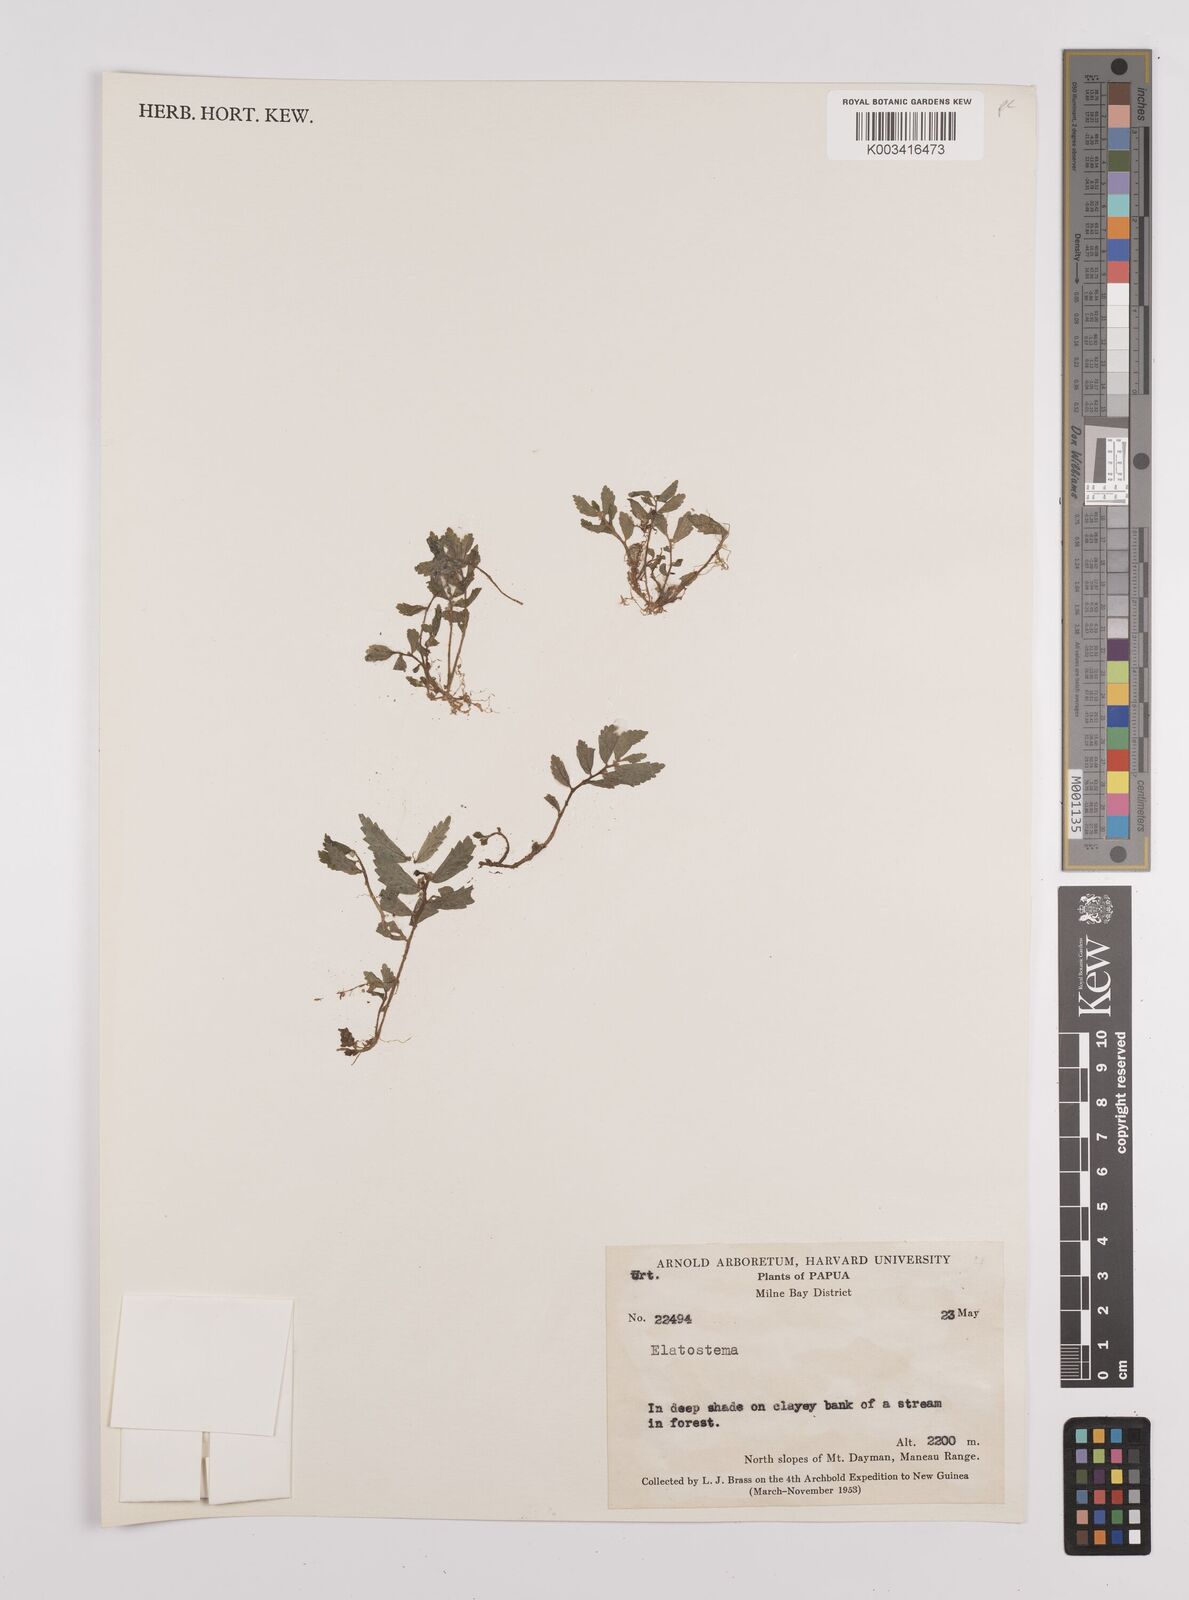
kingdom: Plantae
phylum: Tracheophyta
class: Magnoliopsida
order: Rosales
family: Urticaceae
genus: Elatostema
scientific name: Elatostema
